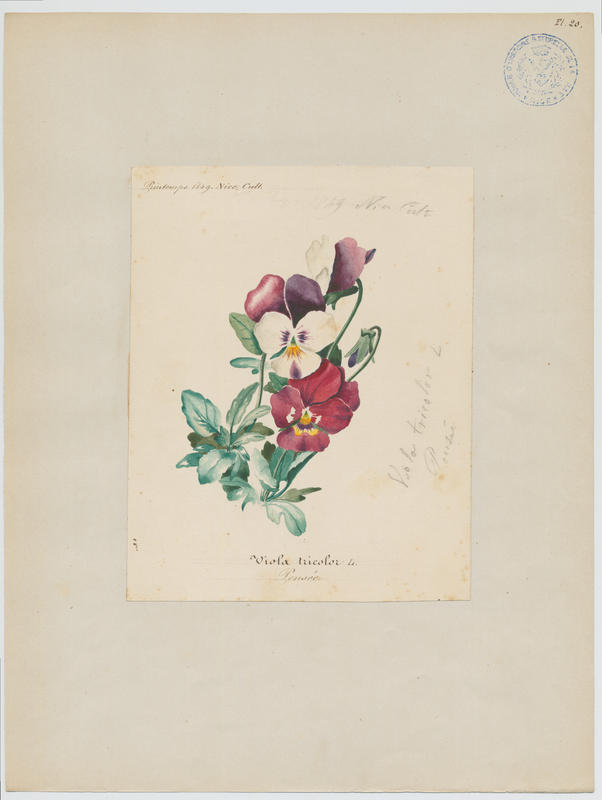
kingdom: Plantae
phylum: Tracheophyta
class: Magnoliopsida
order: Malpighiales
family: Violaceae
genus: Viola
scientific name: Viola tricolor
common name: Pansy
